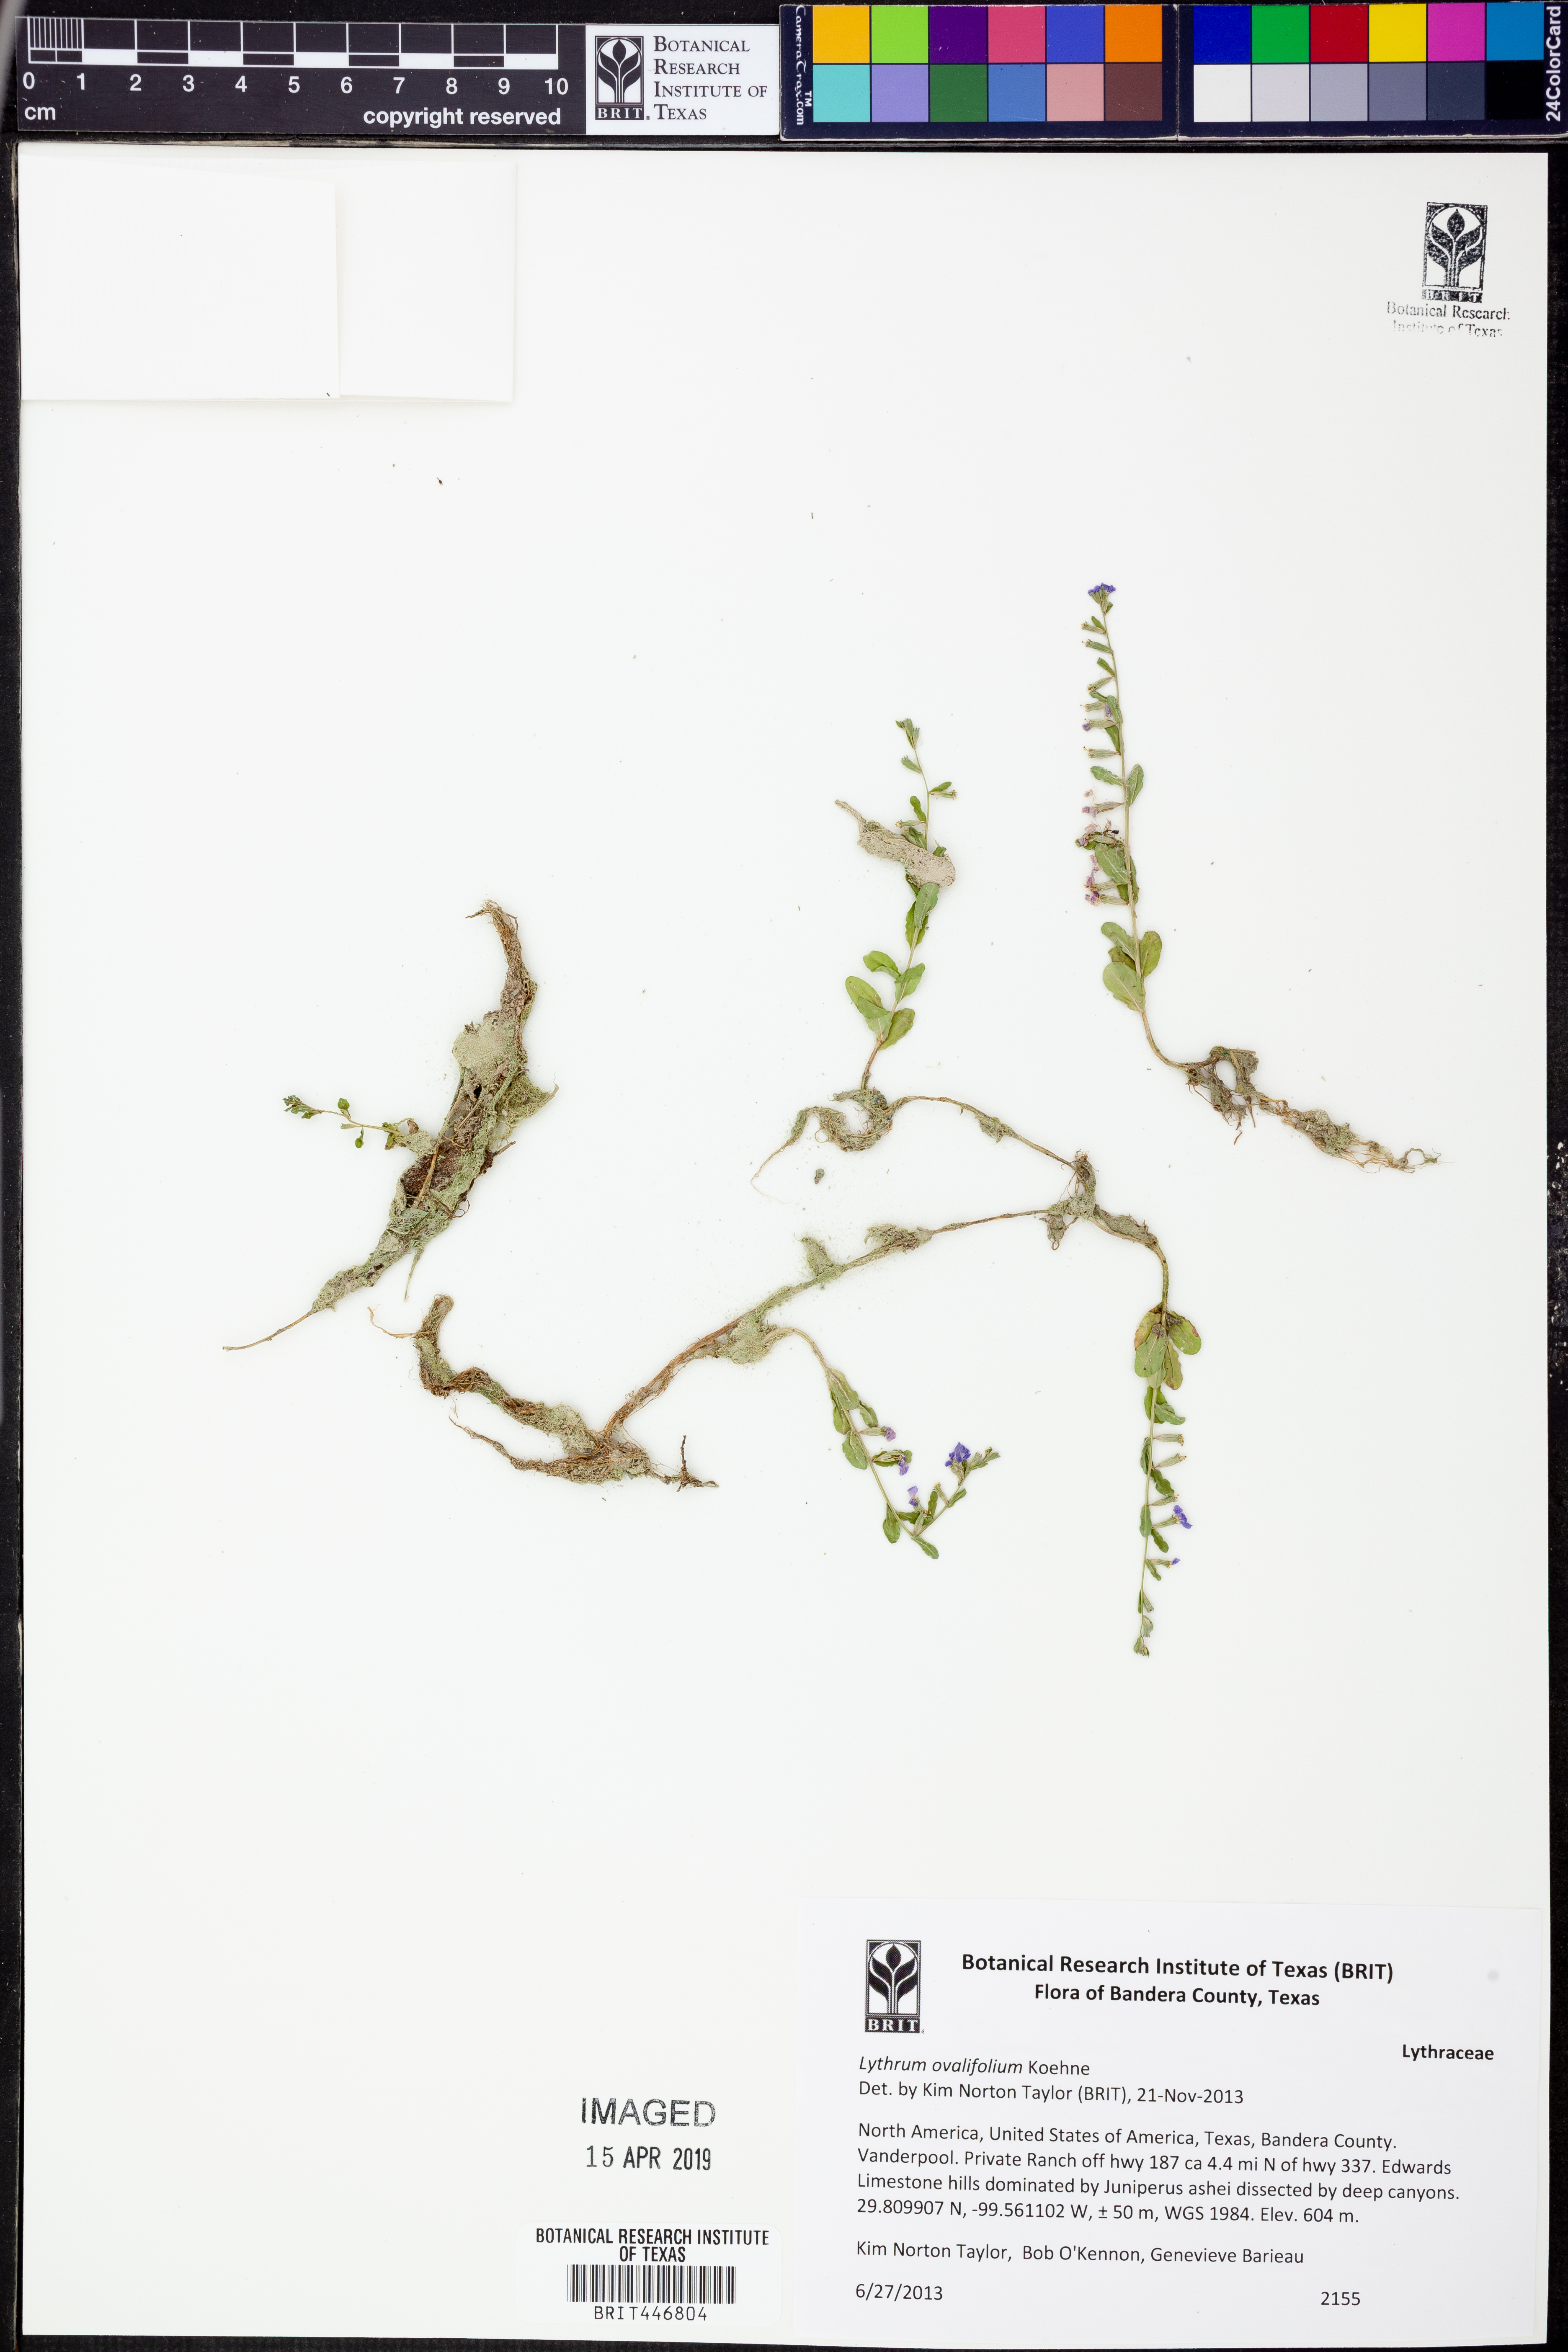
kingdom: Plantae
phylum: Tracheophyta
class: Magnoliopsida
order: Myrtales
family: Lythraceae
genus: Lythrum
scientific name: Lythrum ovalifolium
